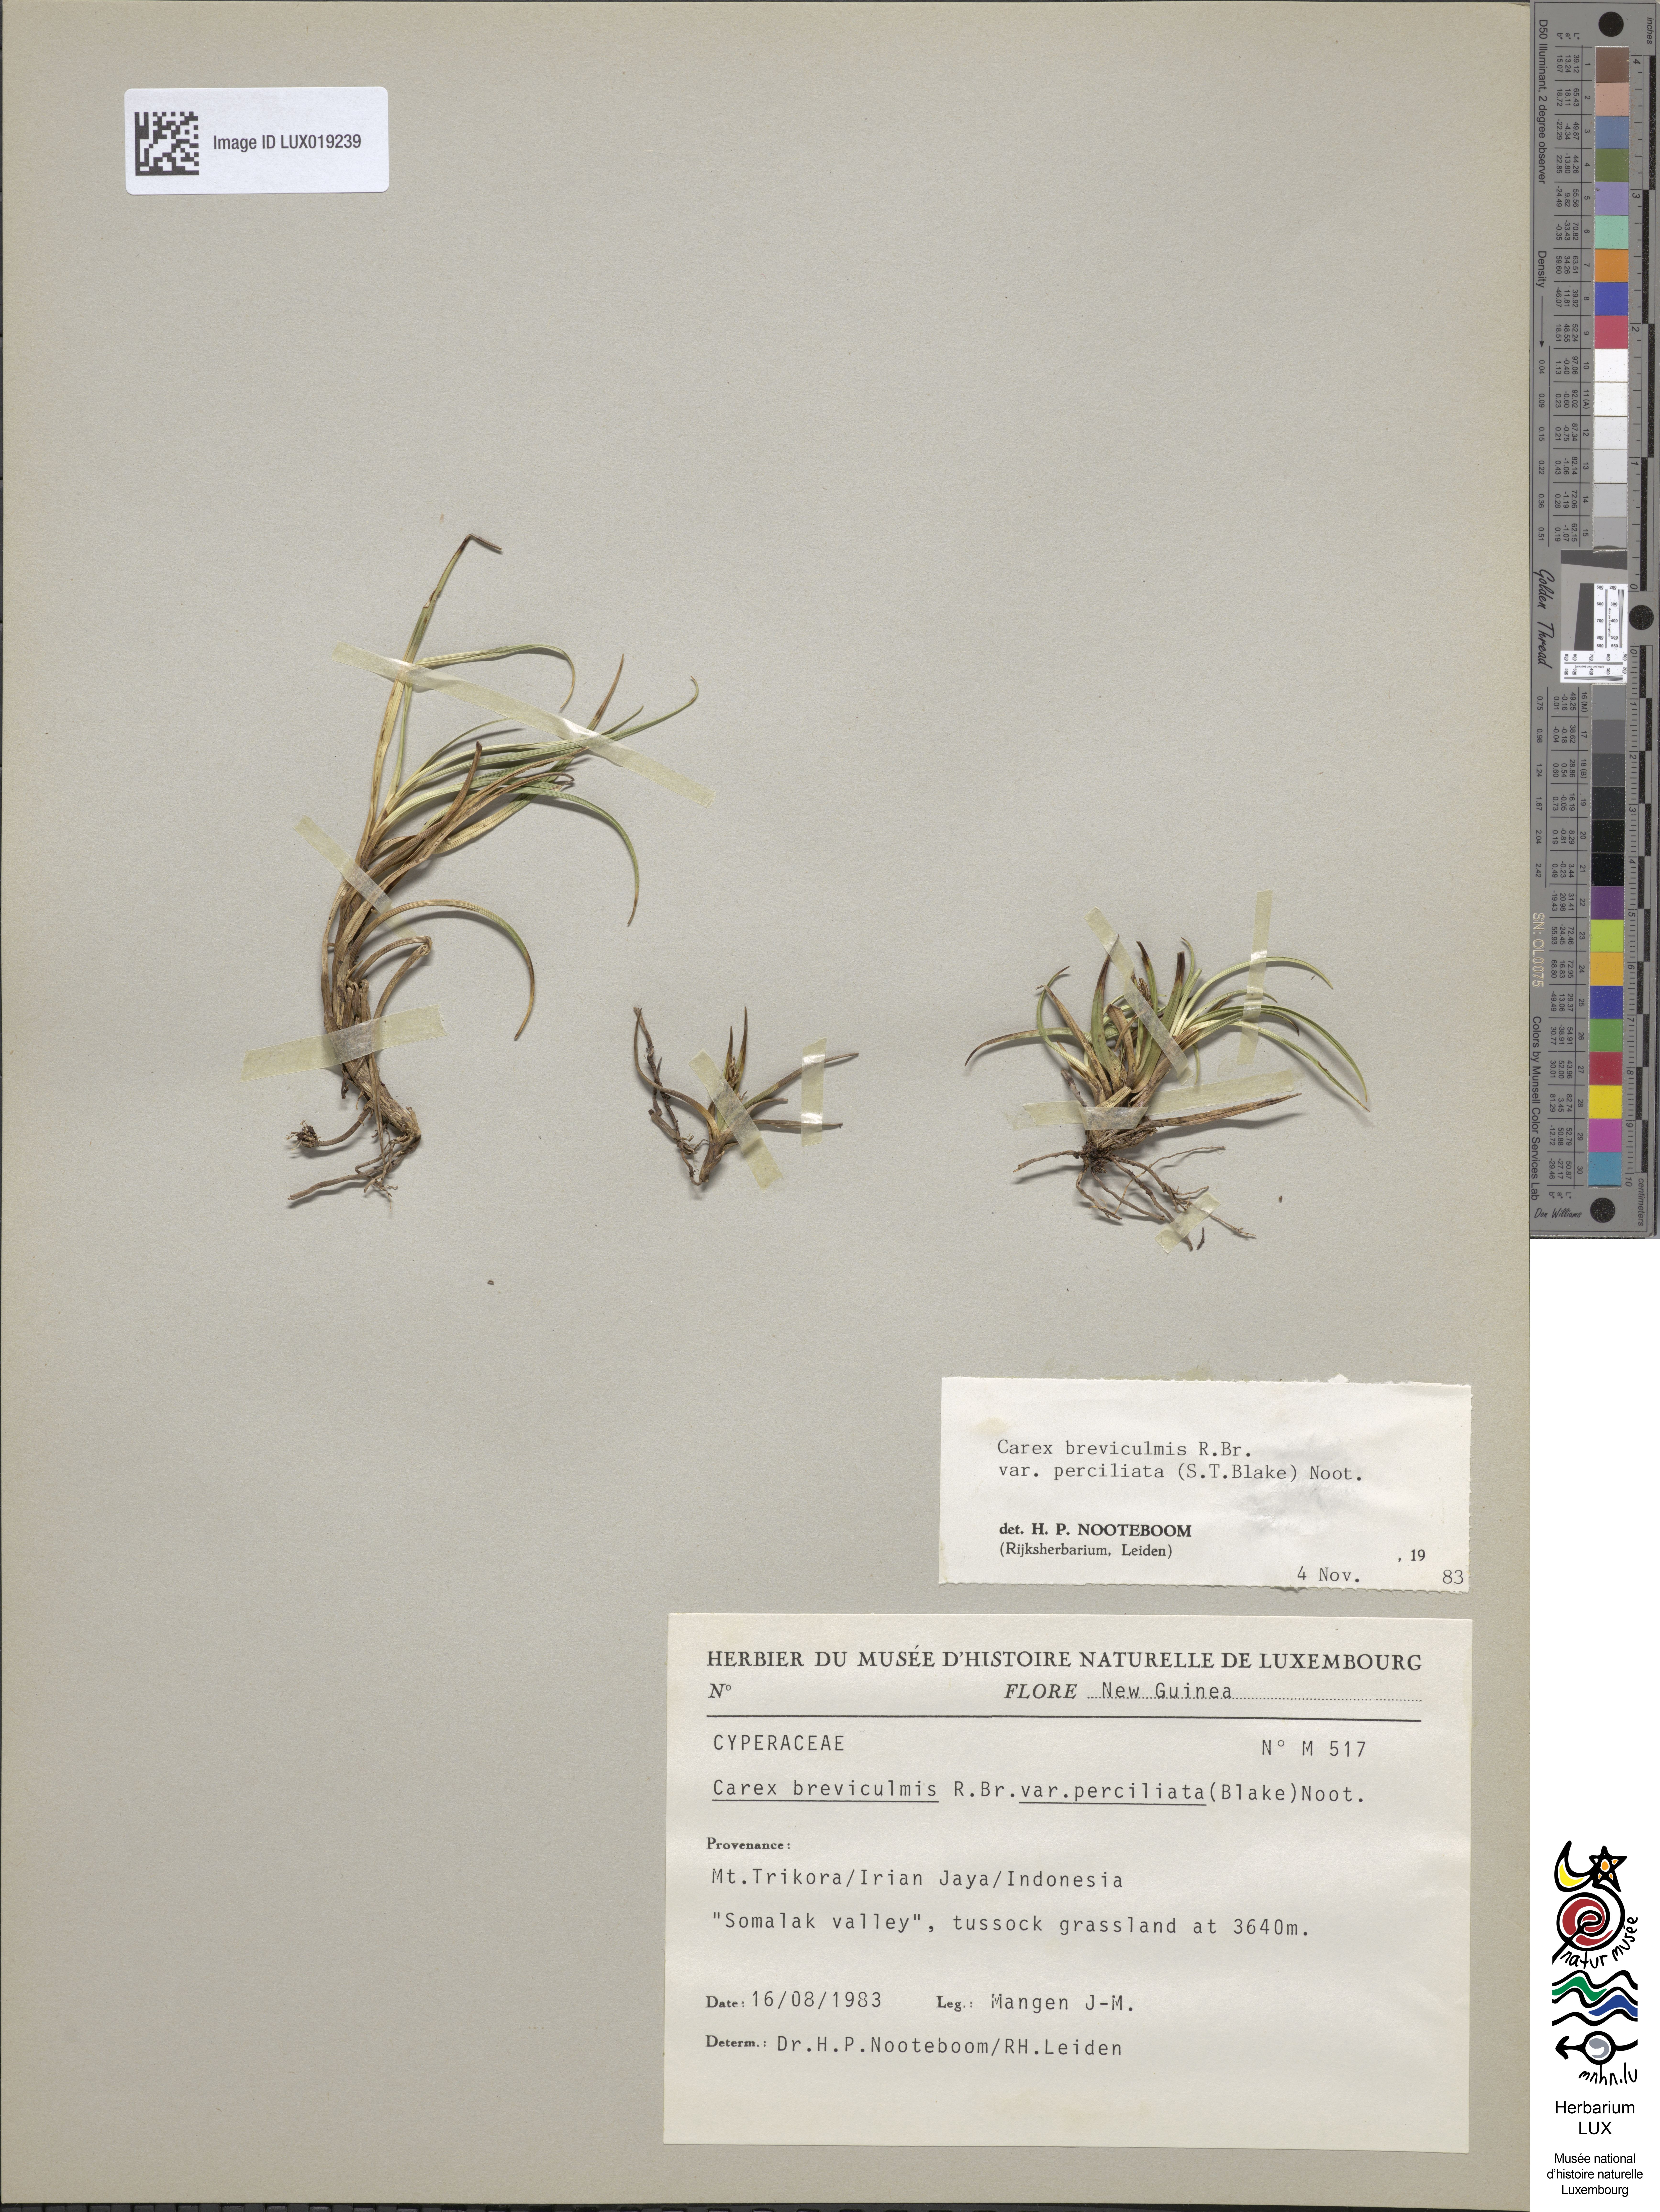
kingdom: Plantae
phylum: Tracheophyta
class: Liliopsida
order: Poales
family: Cyperaceae
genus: Carex
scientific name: Carex breviculmis
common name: Asian shortstem sedge
